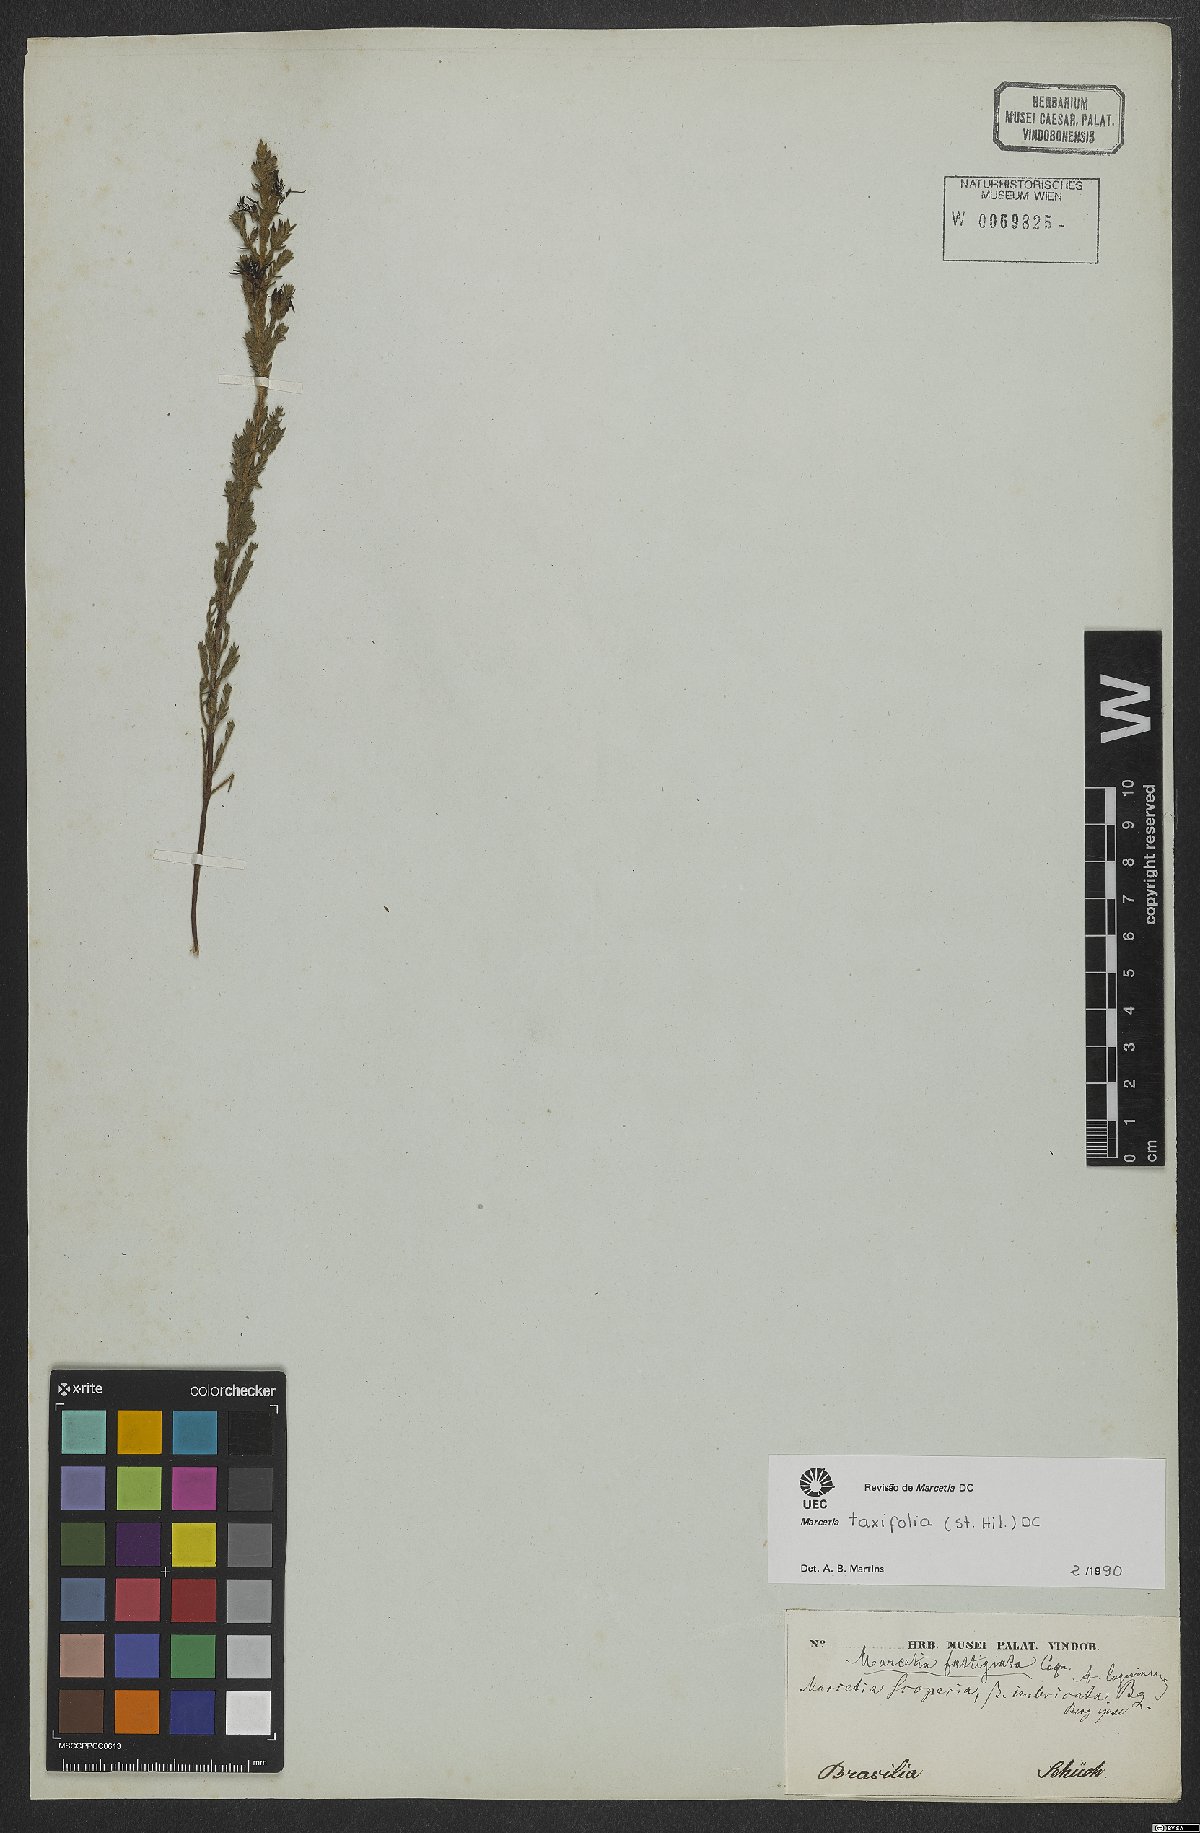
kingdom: Plantae
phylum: Tracheophyta
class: Magnoliopsida
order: Myrtales
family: Melastomataceae
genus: Marcetia
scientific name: Marcetia taxifolia
